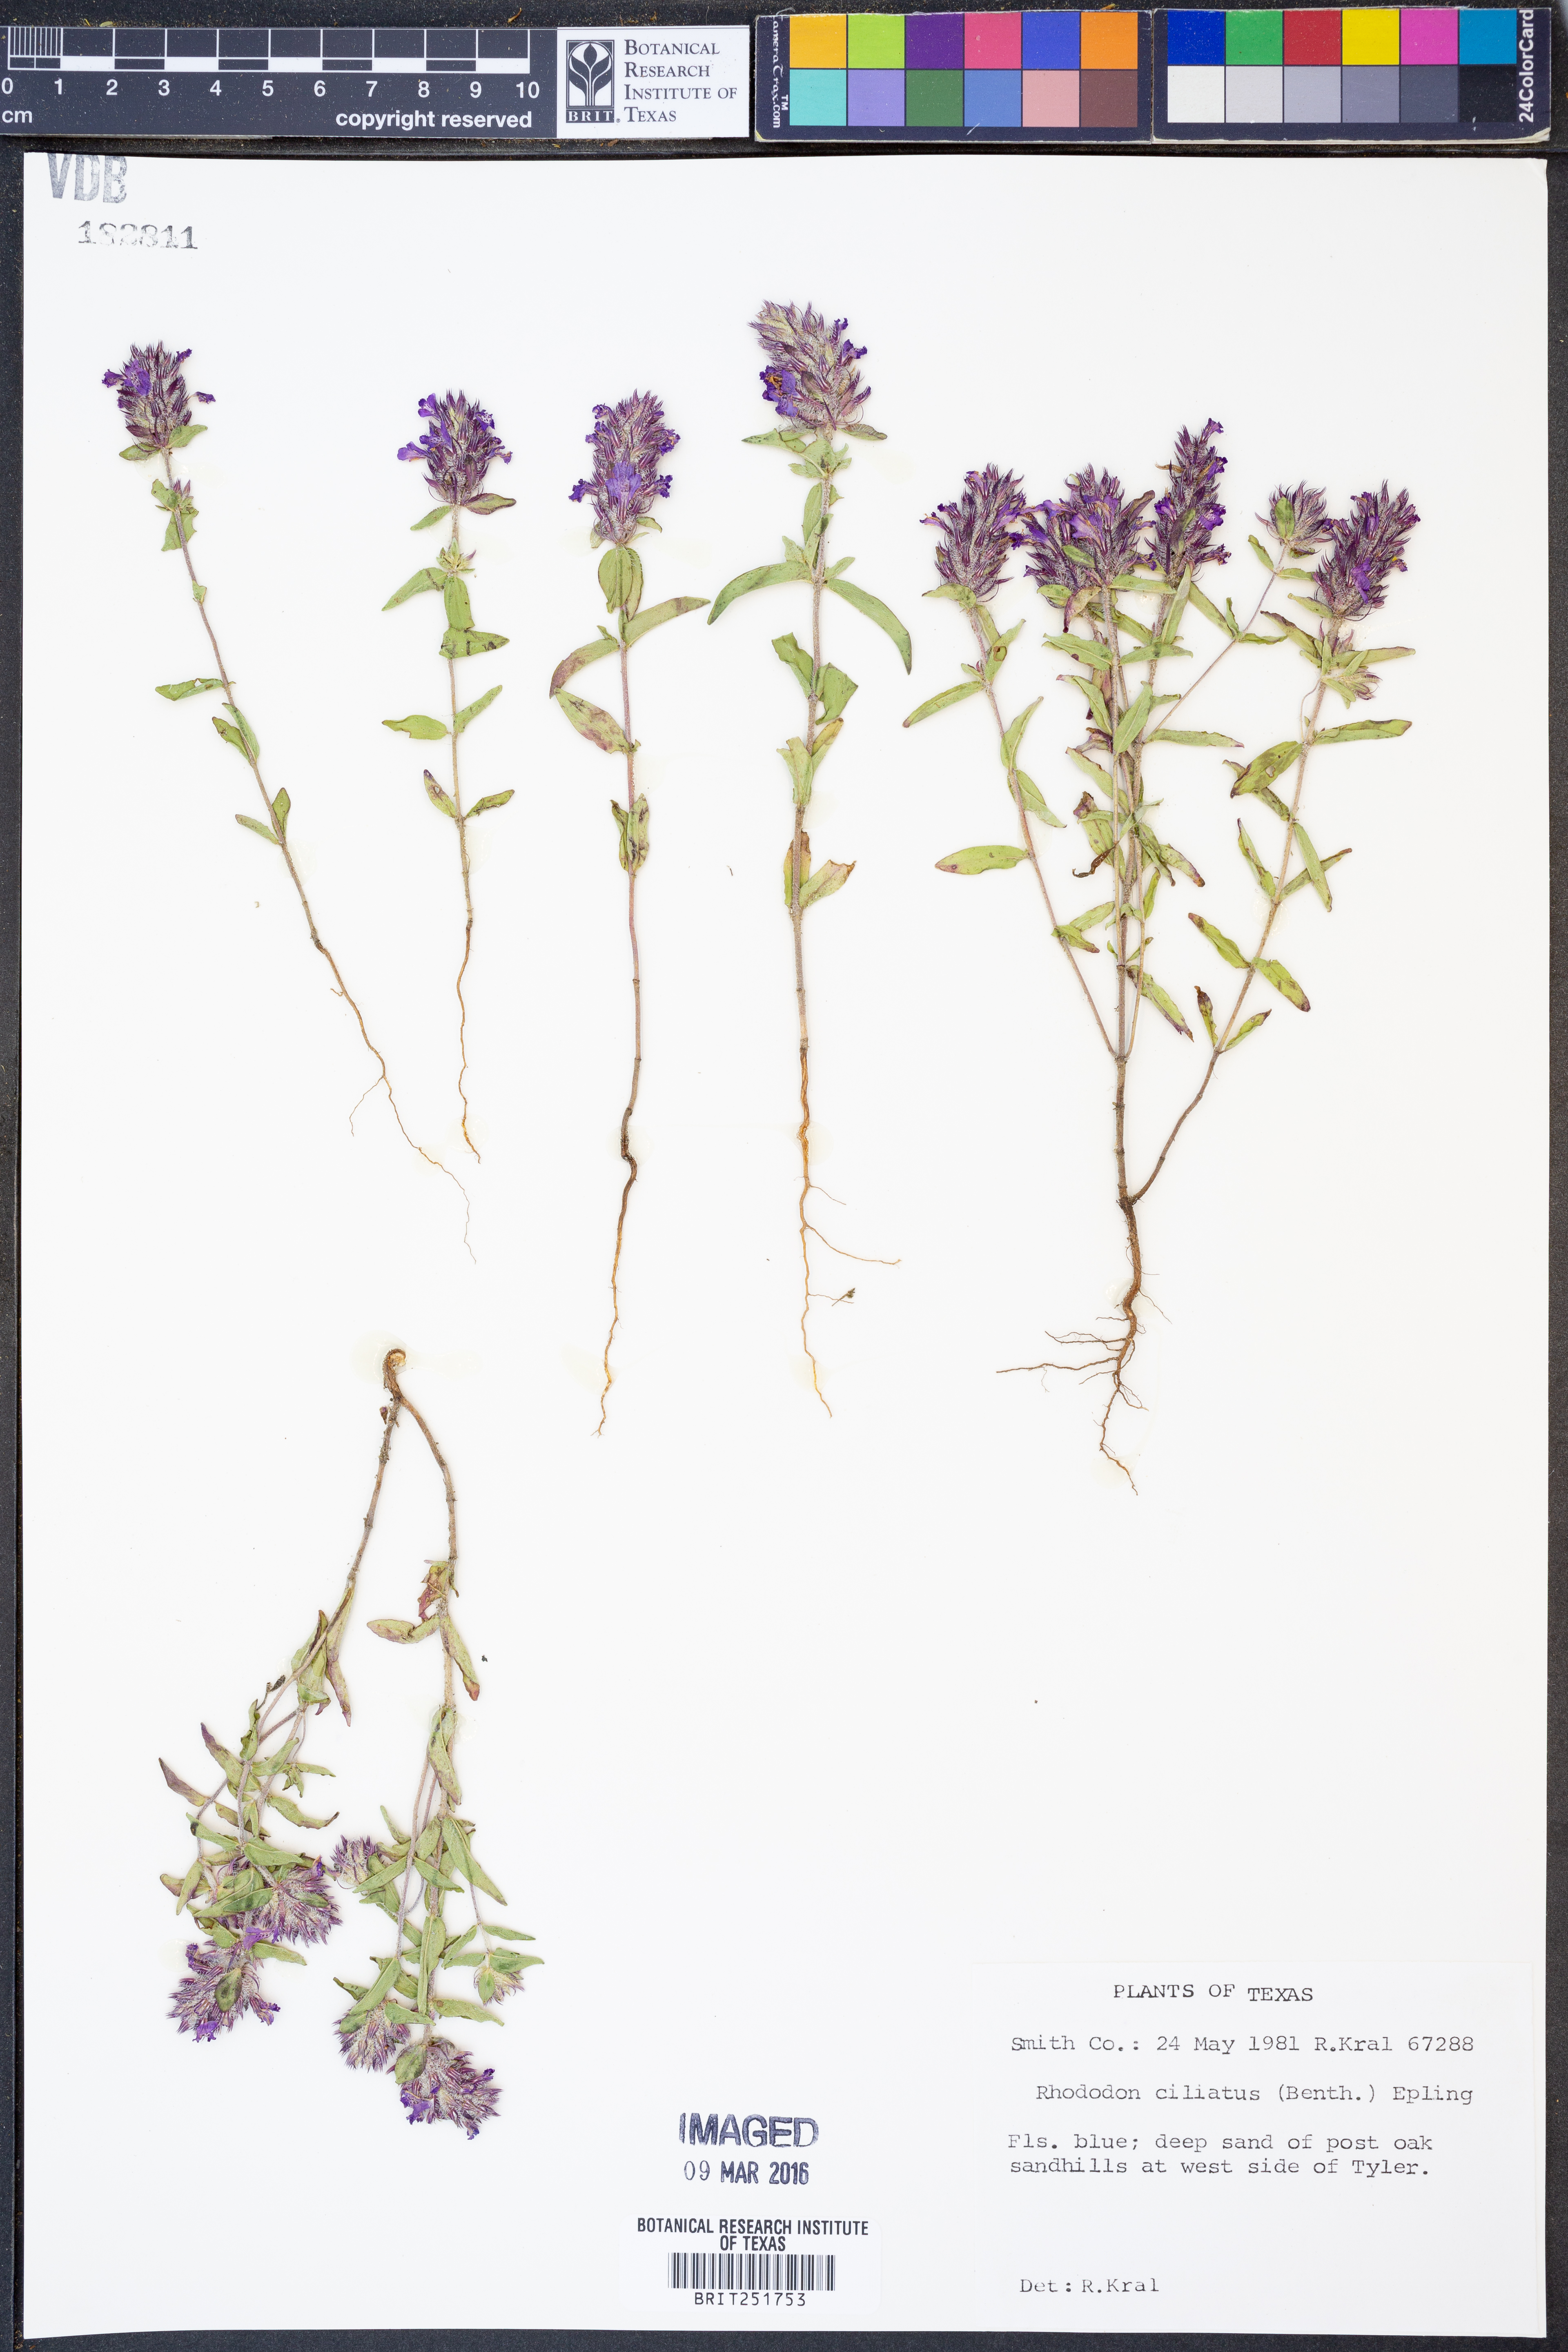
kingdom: Plantae
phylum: Tracheophyta
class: Magnoliopsida
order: Lamiales
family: Lamiaceae
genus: Rhododon
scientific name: Rhododon ciliatus
